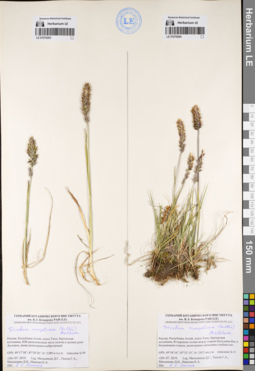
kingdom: Plantae
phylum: Tracheophyta
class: Liliopsida
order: Poales
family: Poaceae
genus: Koeleria
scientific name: Koeleria spicata
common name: Mountain trisetum
